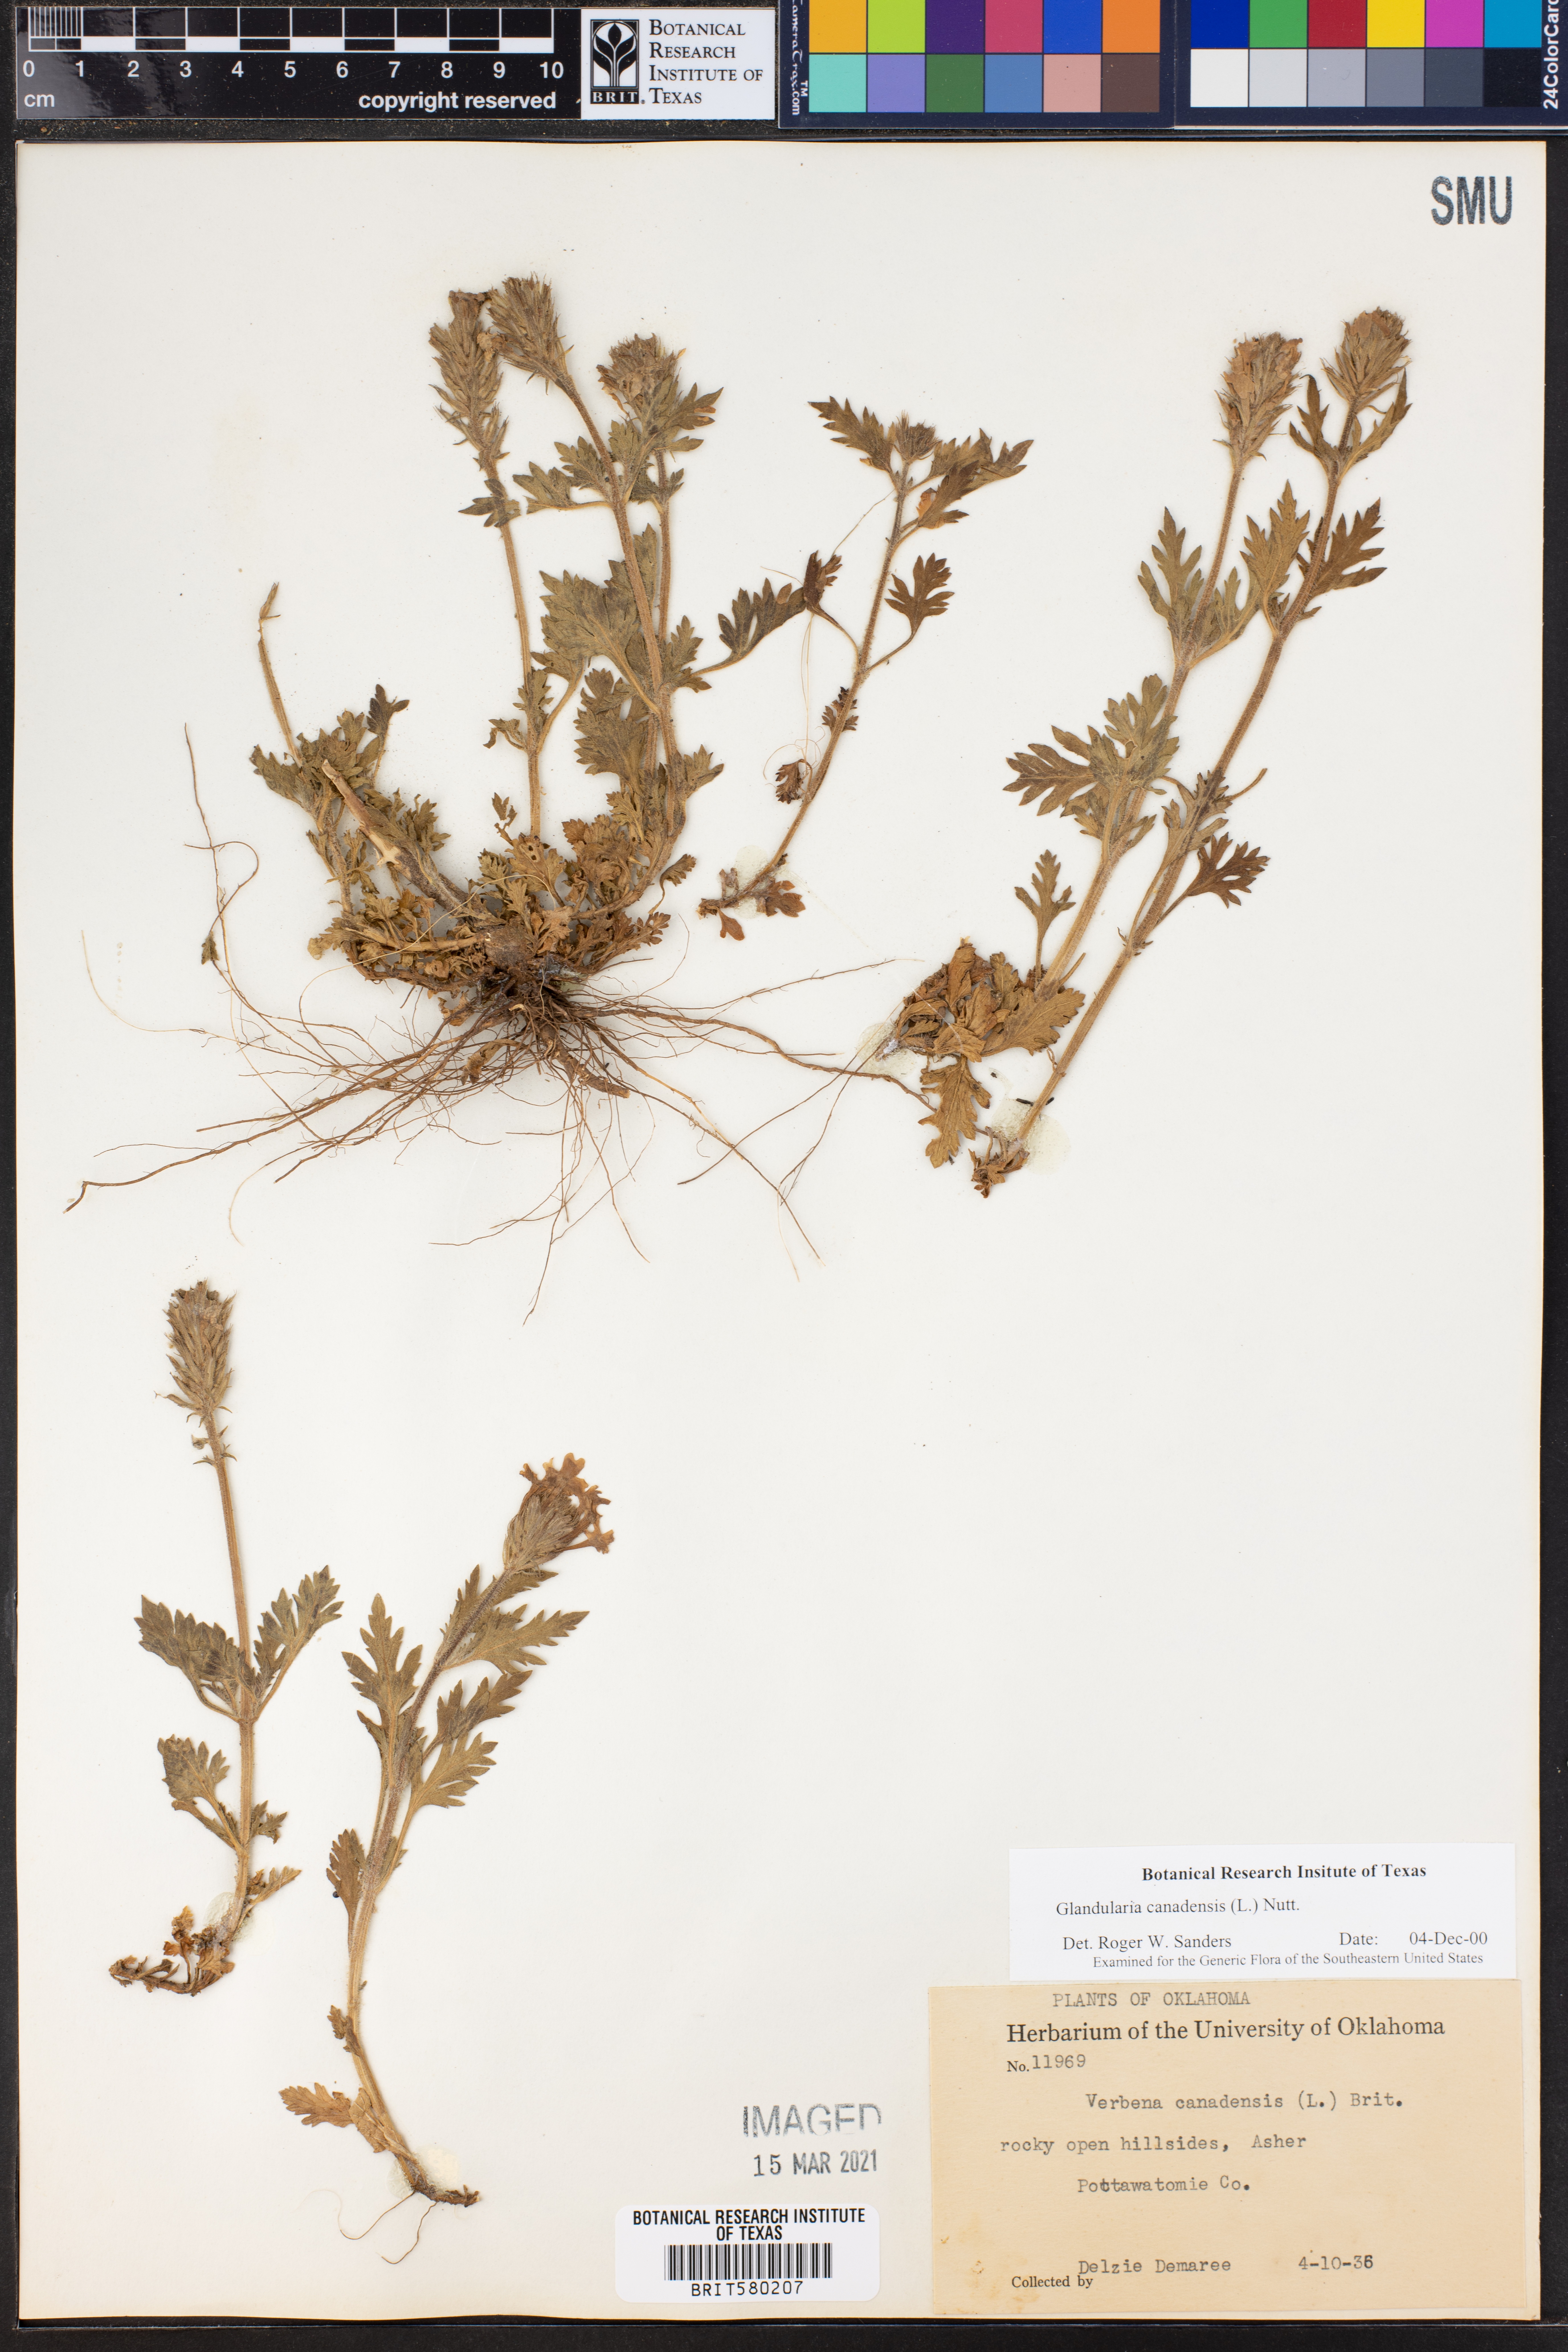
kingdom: Plantae
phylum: Tracheophyta
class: Magnoliopsida
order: Lamiales
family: Verbenaceae
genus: Verbena
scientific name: Verbena canadensis
